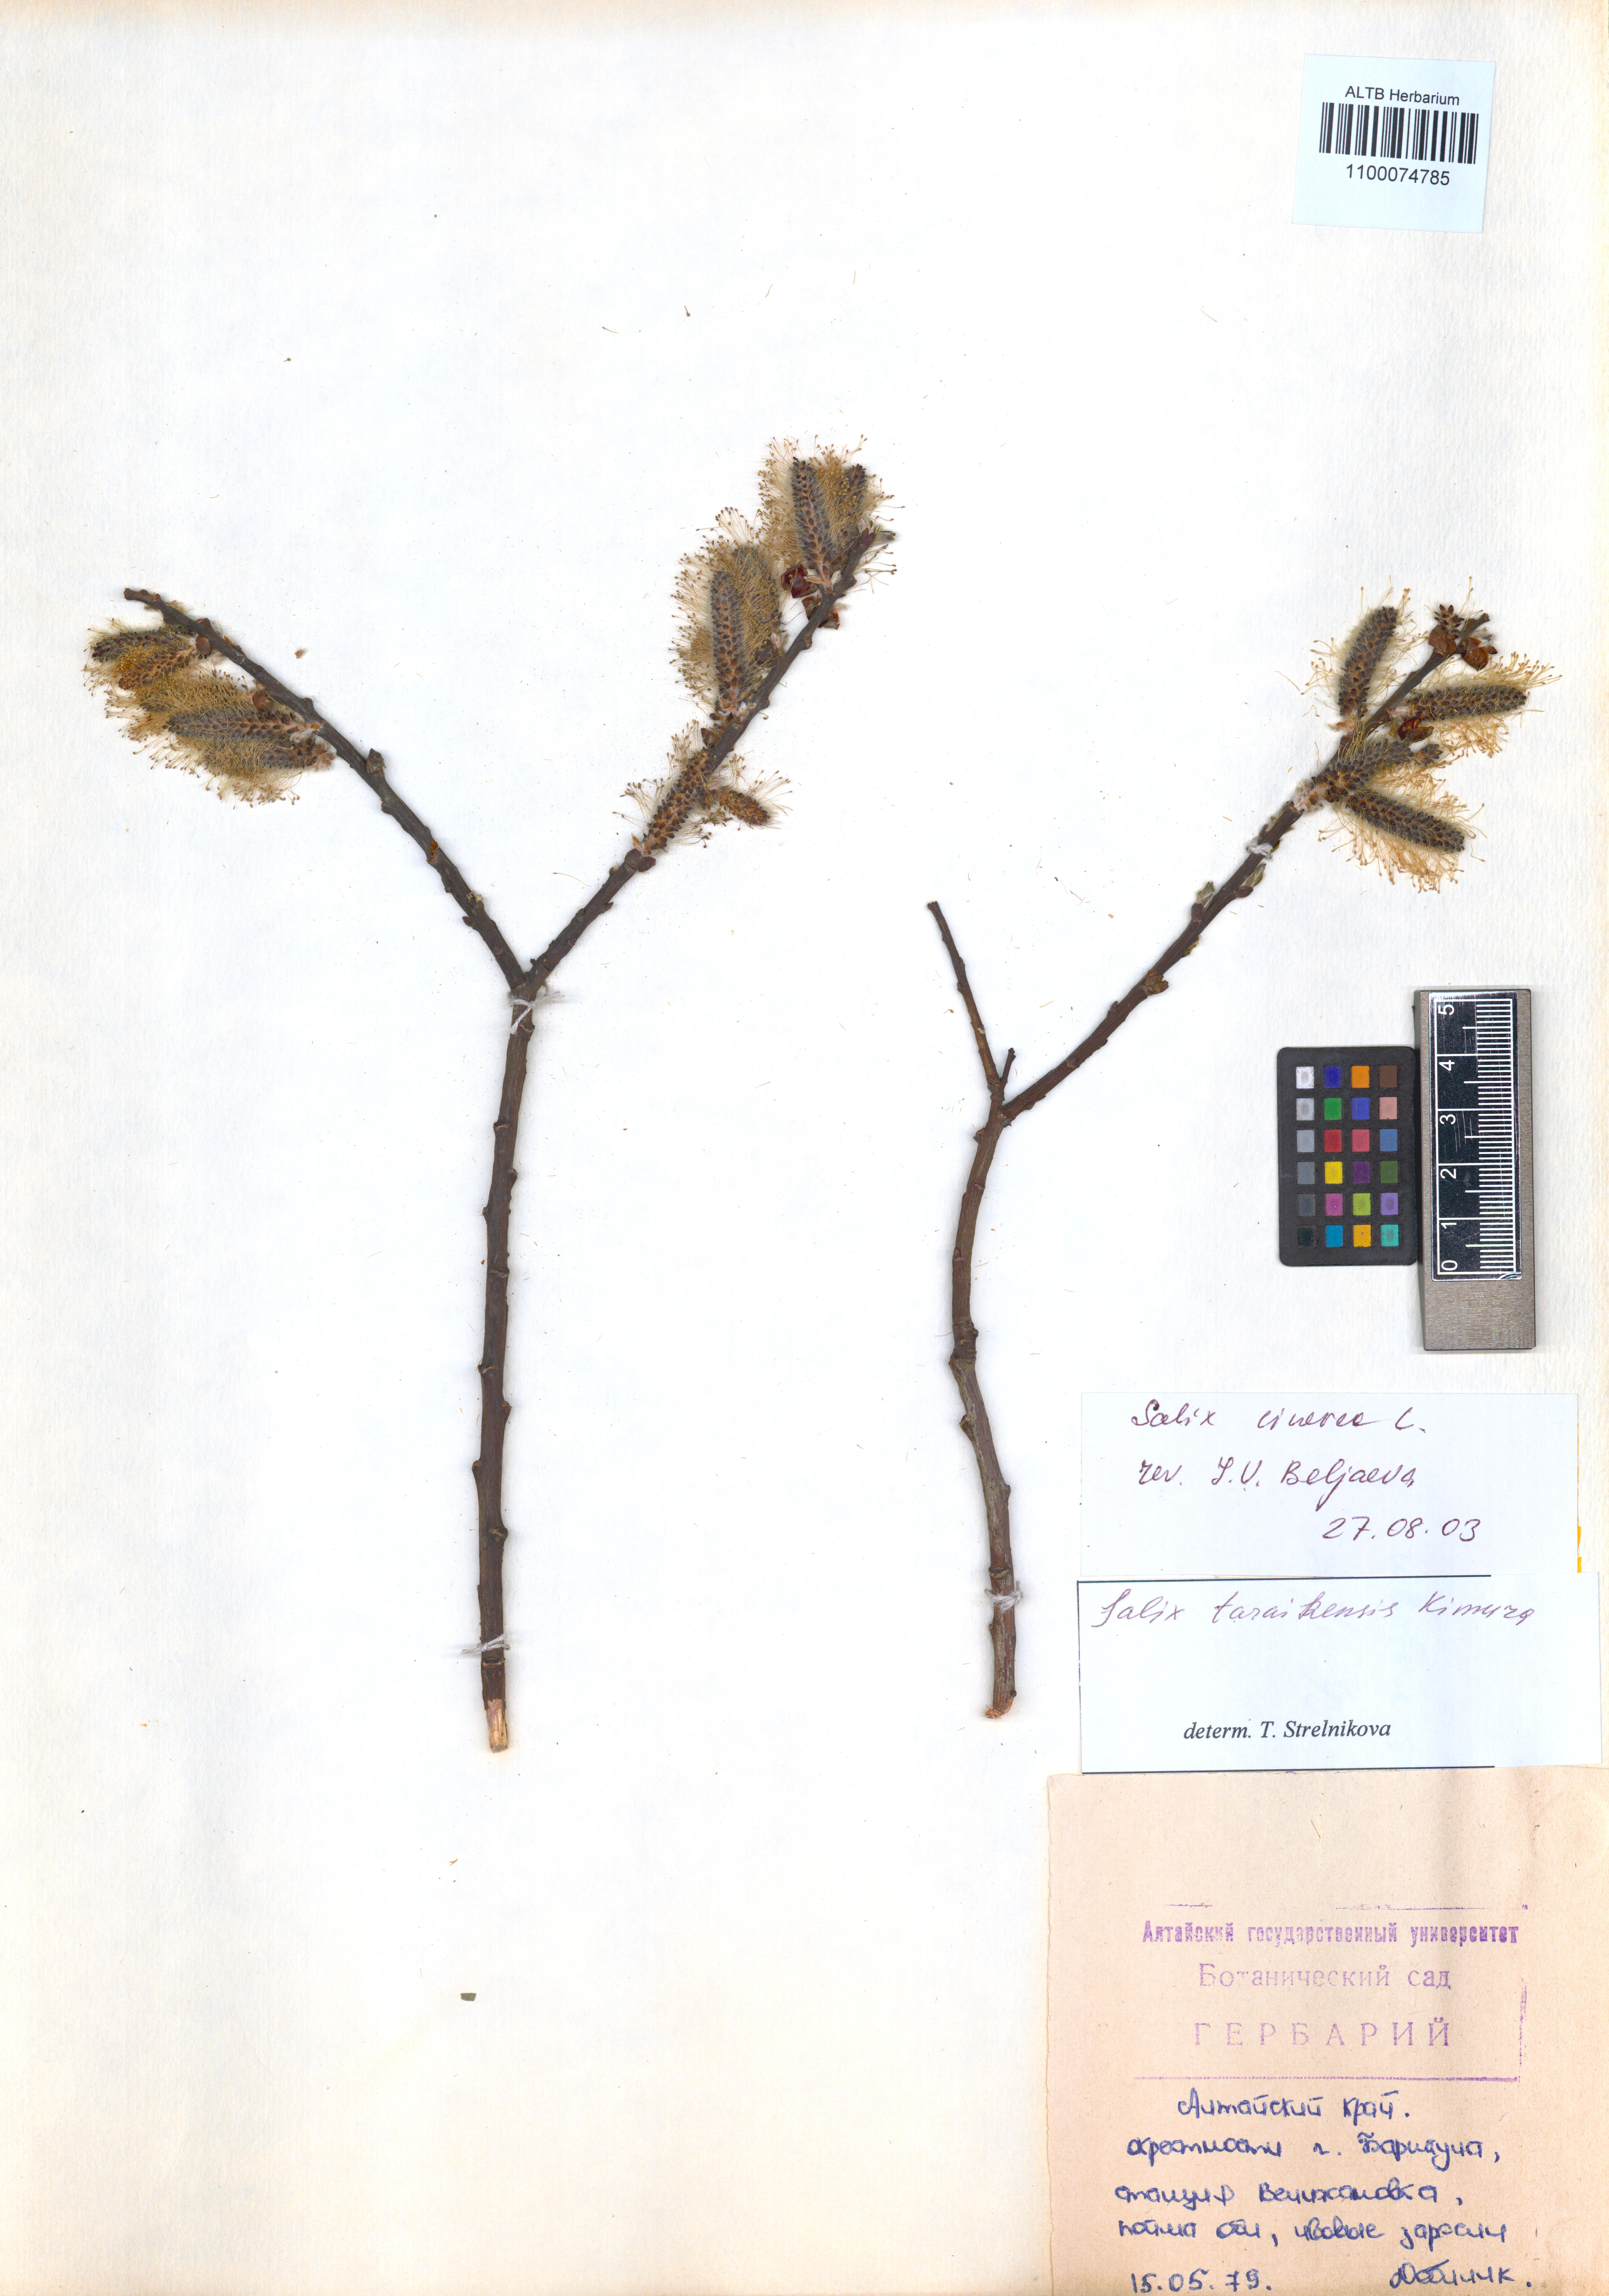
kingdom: Plantae
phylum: Tracheophyta
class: Magnoliopsida
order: Malpighiales
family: Salicaceae
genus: Salix
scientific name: Salix cinerea
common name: Common sallow
